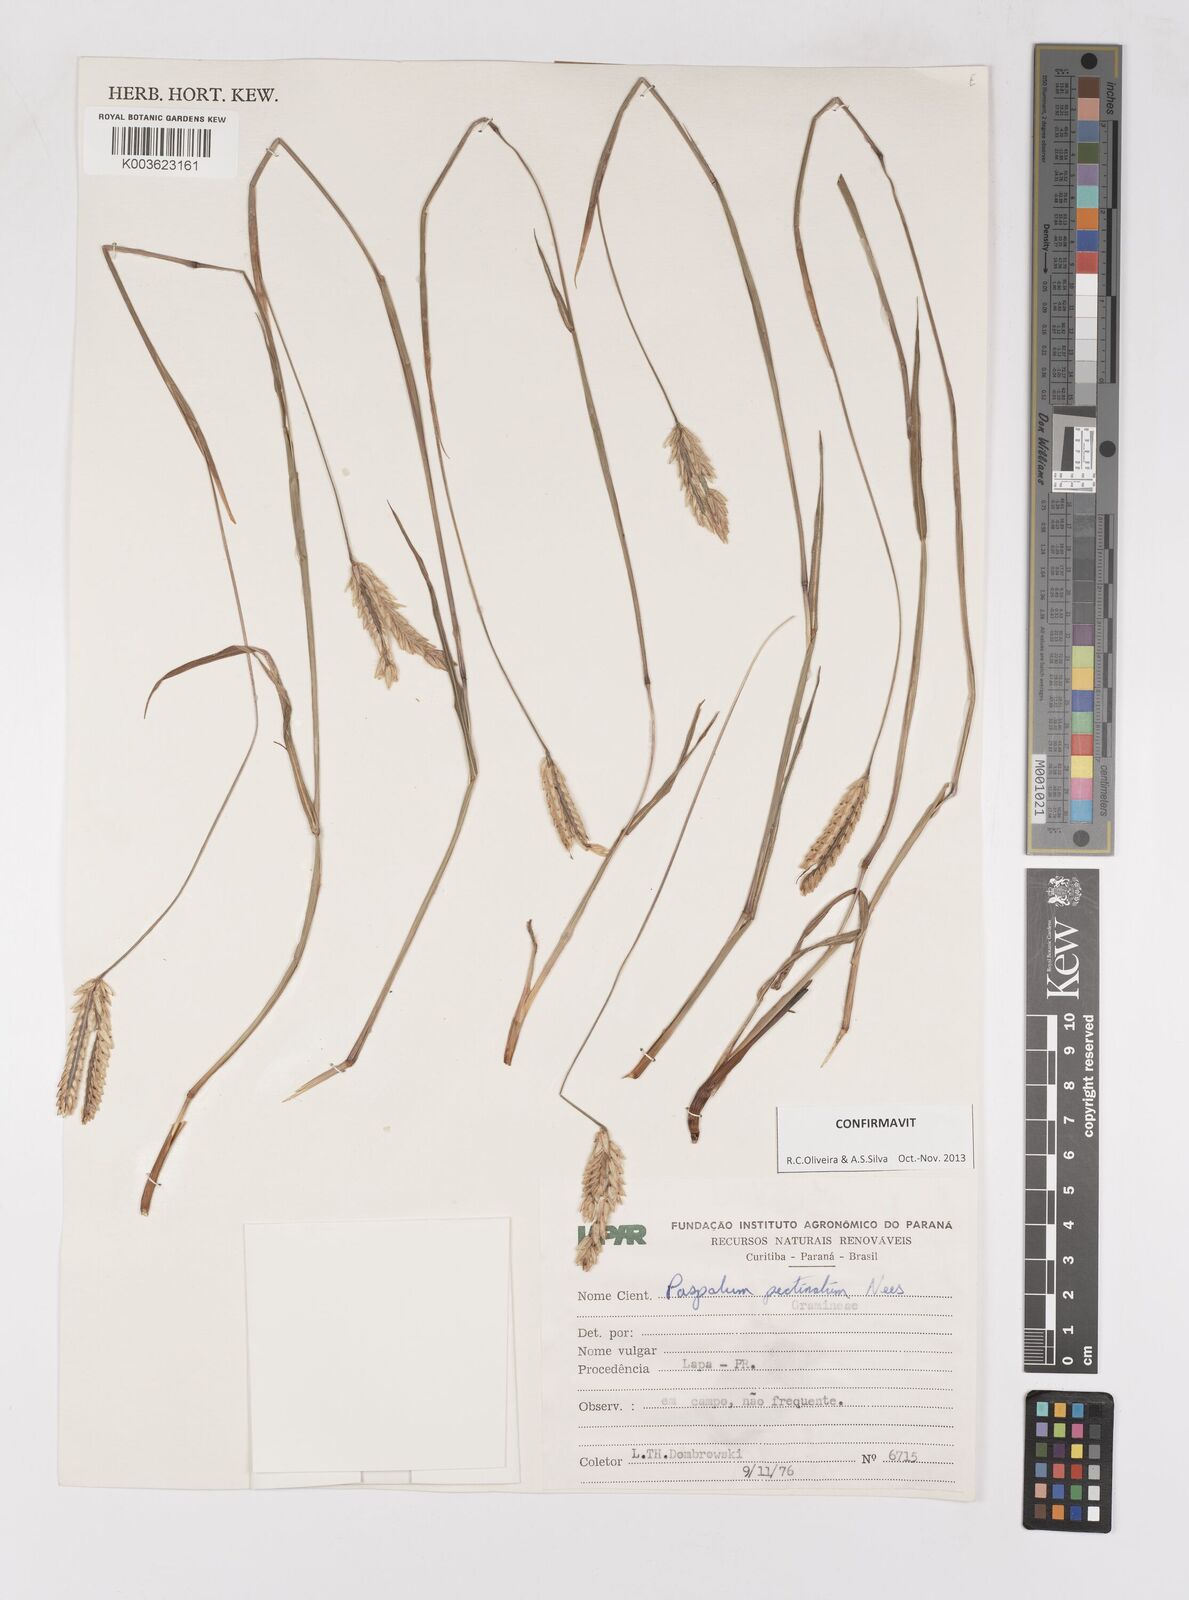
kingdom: Plantae
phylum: Tracheophyta
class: Liliopsida
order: Poales
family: Poaceae
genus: Paspalum
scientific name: Paspalum pectinatum
